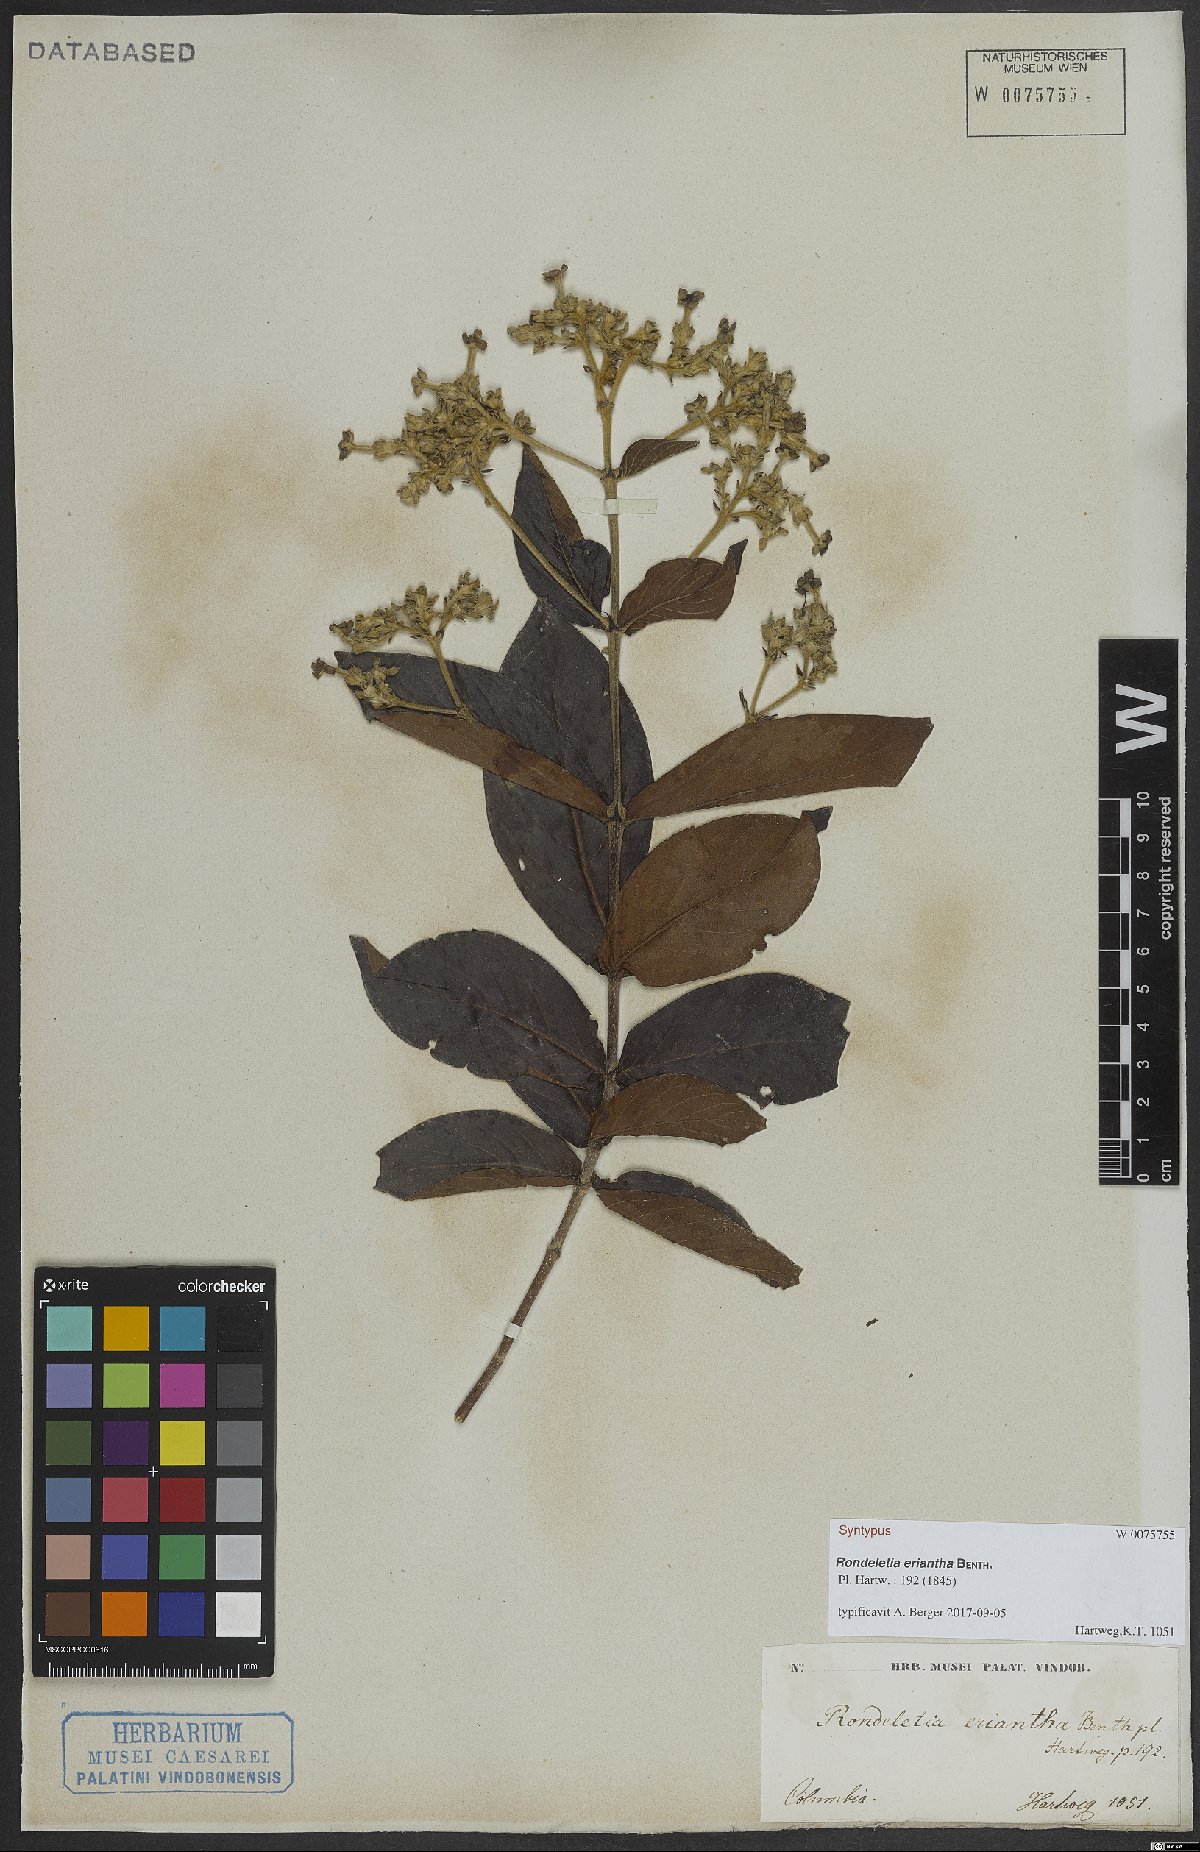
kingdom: Plantae
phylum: Tracheophyta
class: Magnoliopsida
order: Gentianales
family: Rubiaceae
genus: Rondeletia
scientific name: Rondeletia eriantha
